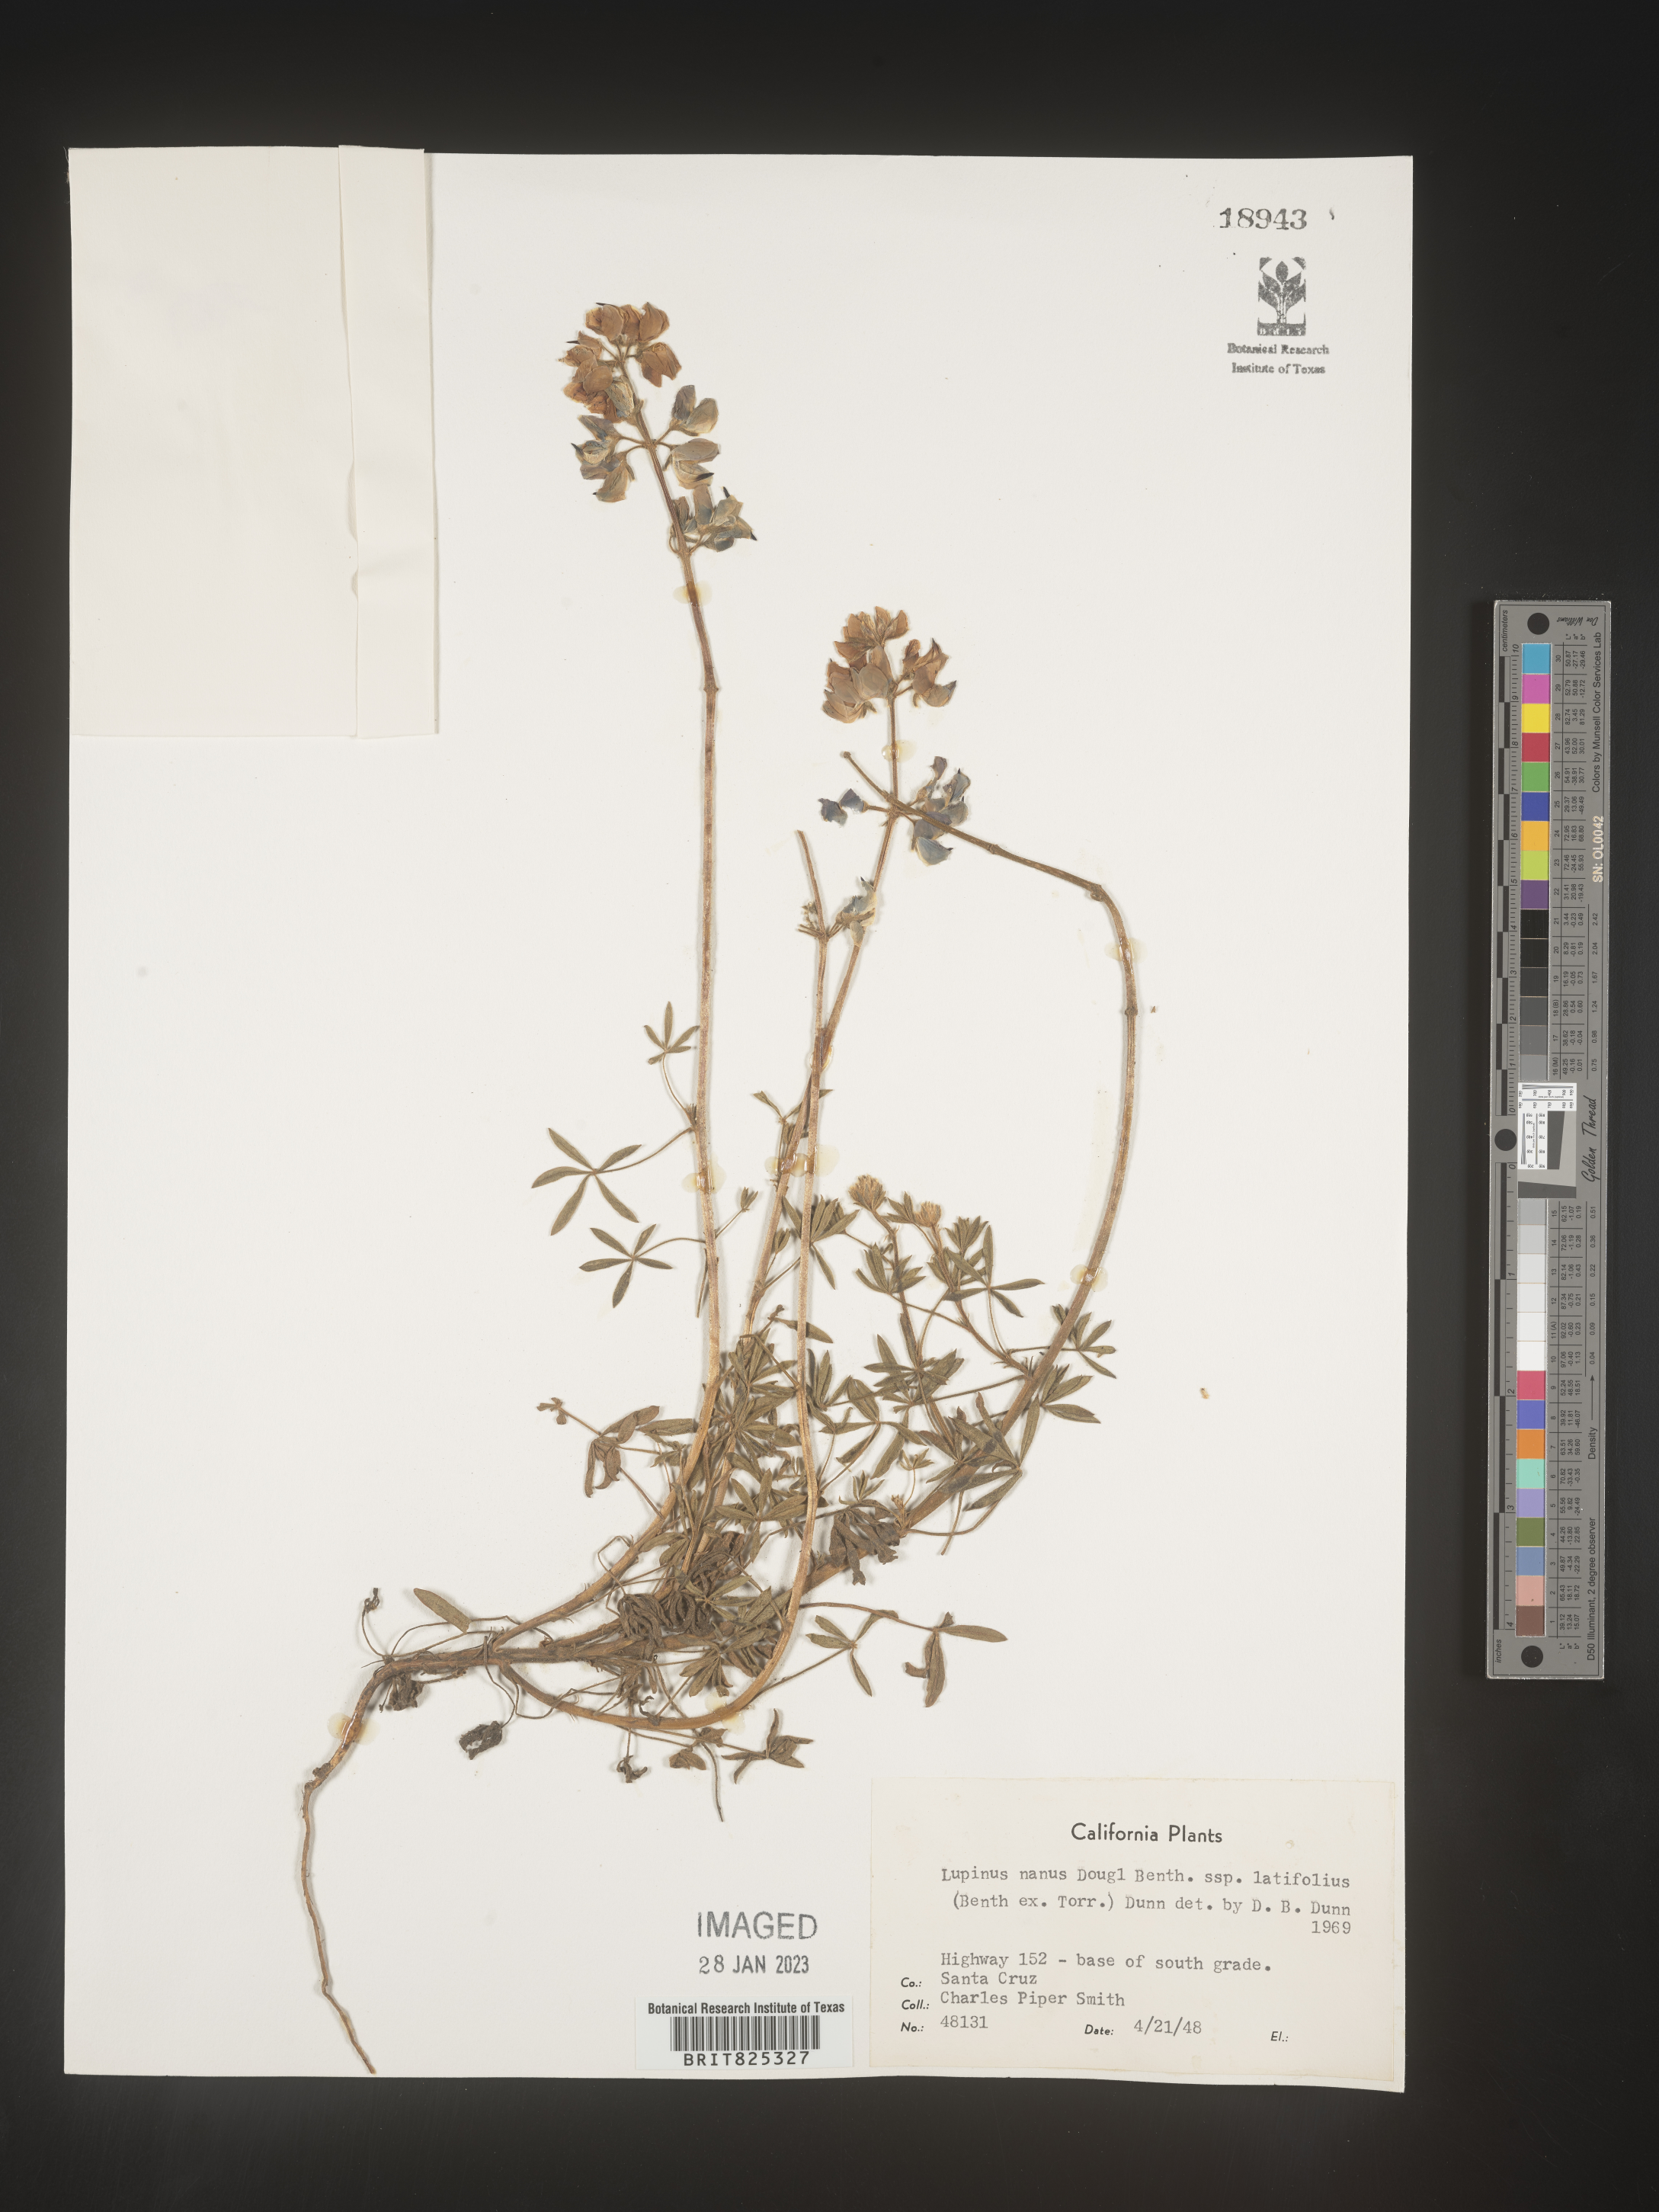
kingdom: Plantae
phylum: Tracheophyta
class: Magnoliopsida
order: Fabales
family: Fabaceae
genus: Lupinus
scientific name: Lupinus nanus
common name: Orean blue lupin
